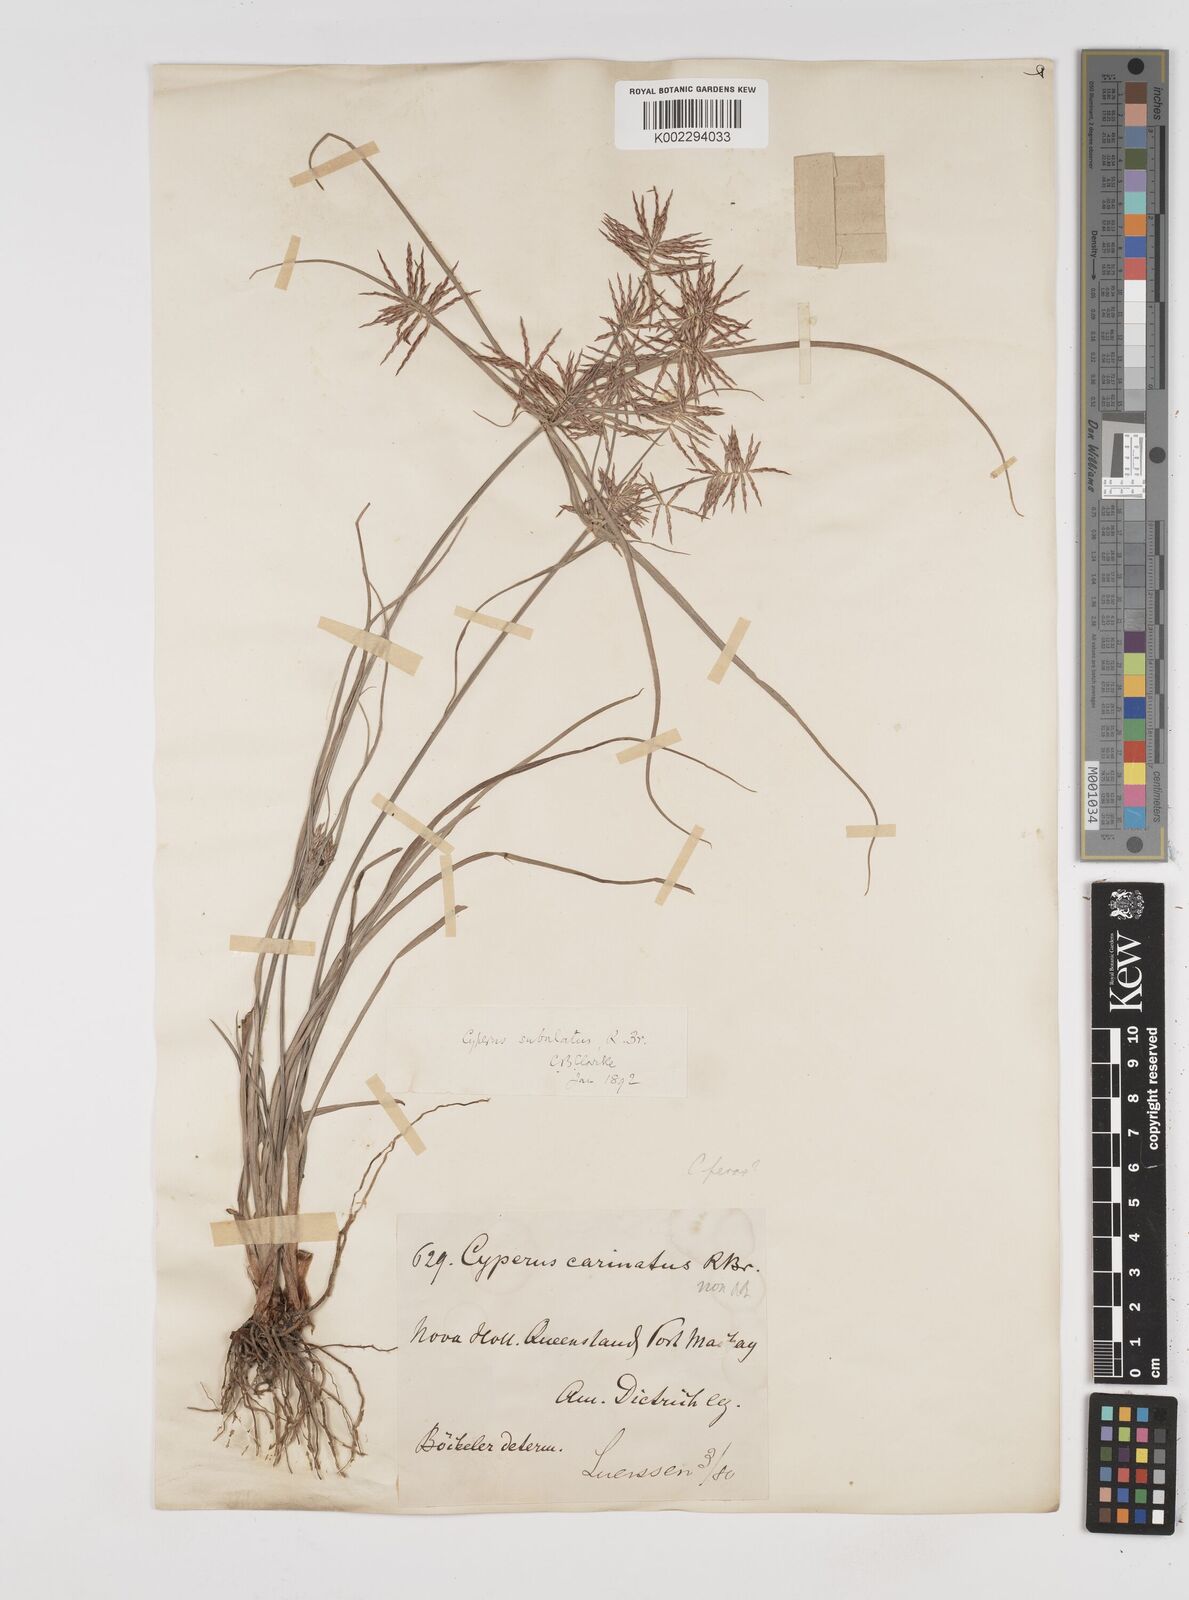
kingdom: Plantae
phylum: Tracheophyta
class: Liliopsida
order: Poales
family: Cyperaceae
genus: Cyperus
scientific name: Cyperus subulatus
